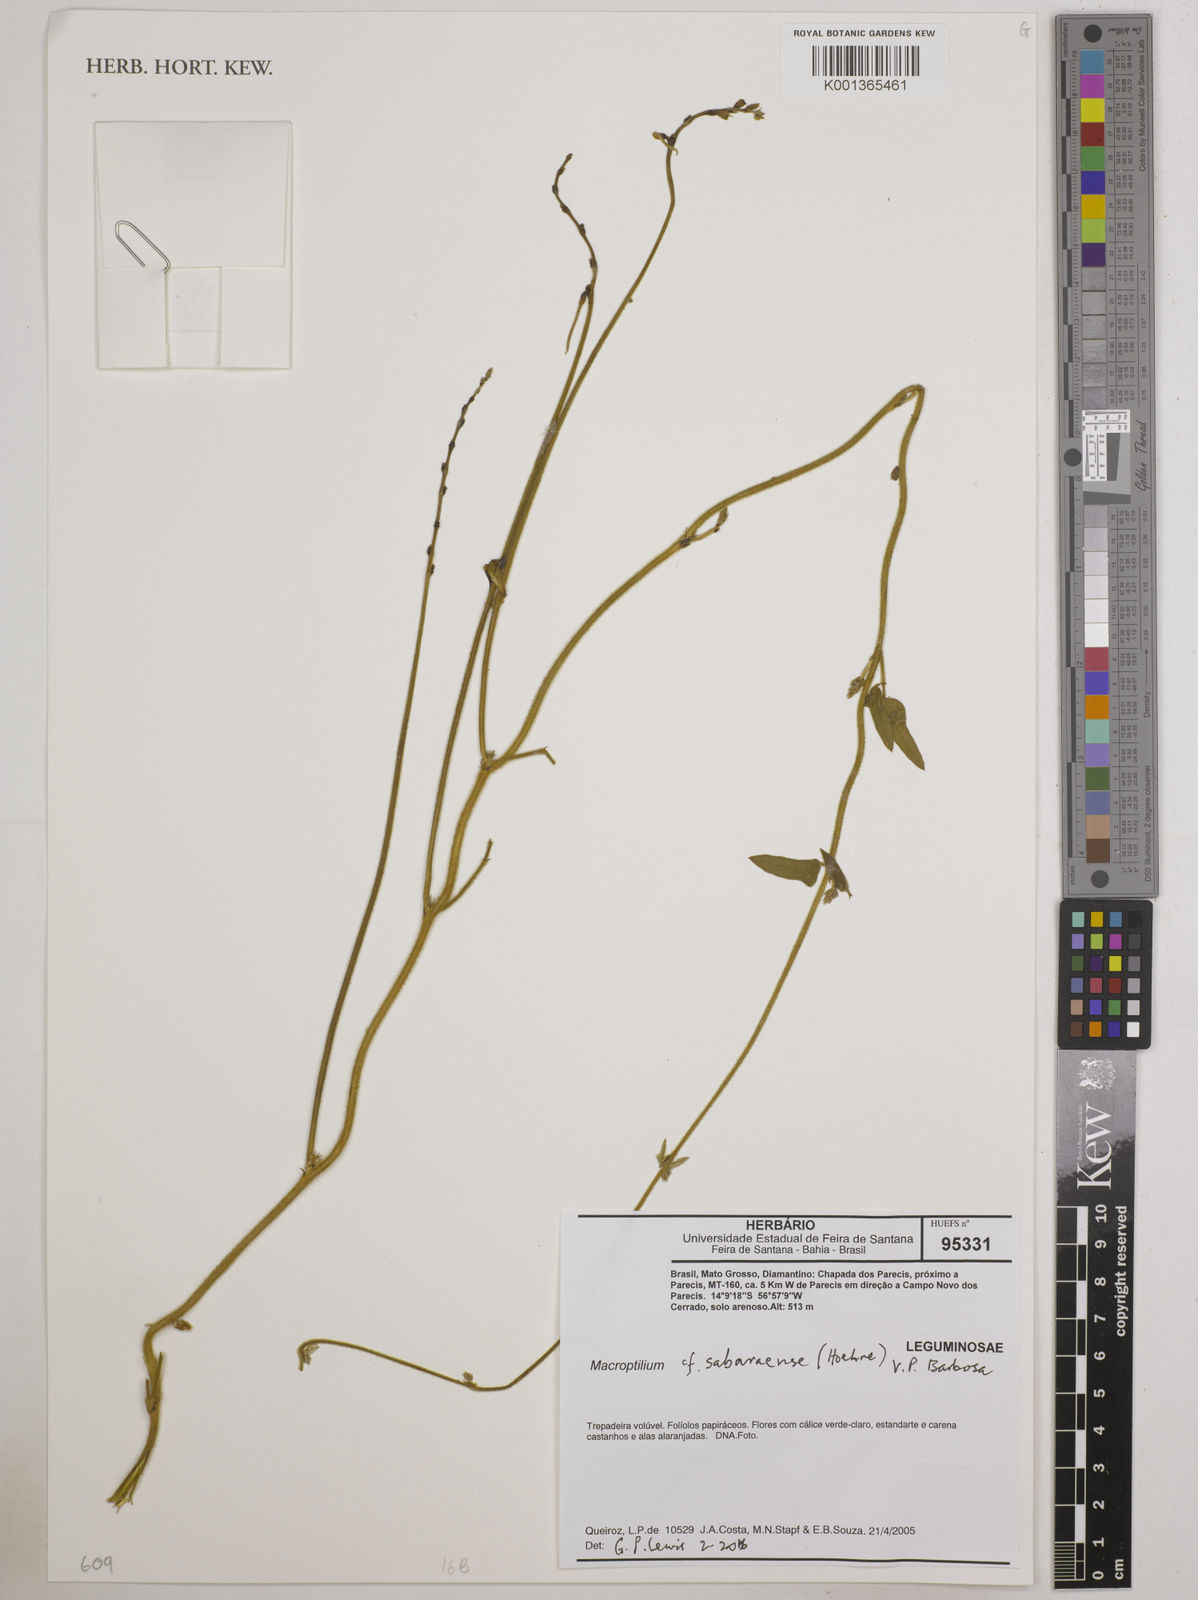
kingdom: Plantae
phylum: Tracheophyta
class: Magnoliopsida
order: Fabales
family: Fabaceae
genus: Macroptilium
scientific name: Macroptilium sabaraense
